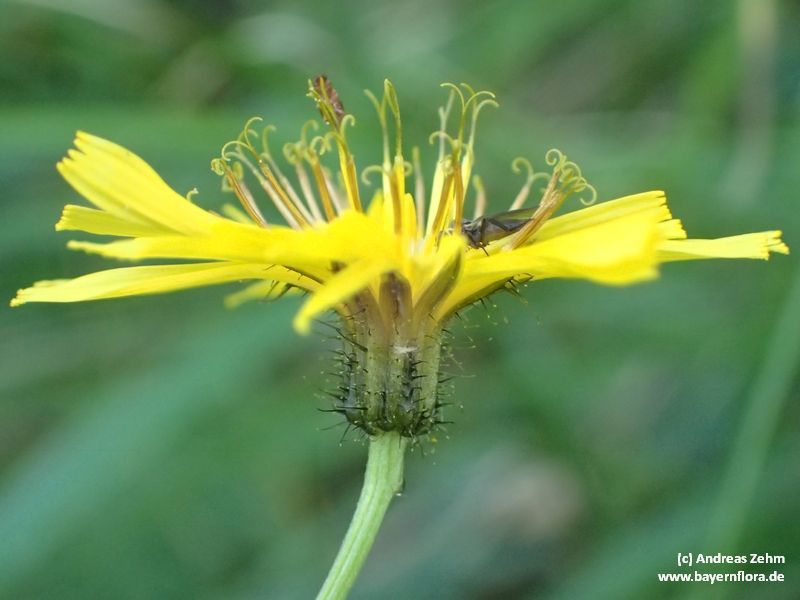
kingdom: Plantae
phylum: Tracheophyta
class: Magnoliopsida
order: Asterales
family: Asteraceae
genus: Crepis
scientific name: Crepis paludosa
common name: Marsh hawk's-beard
